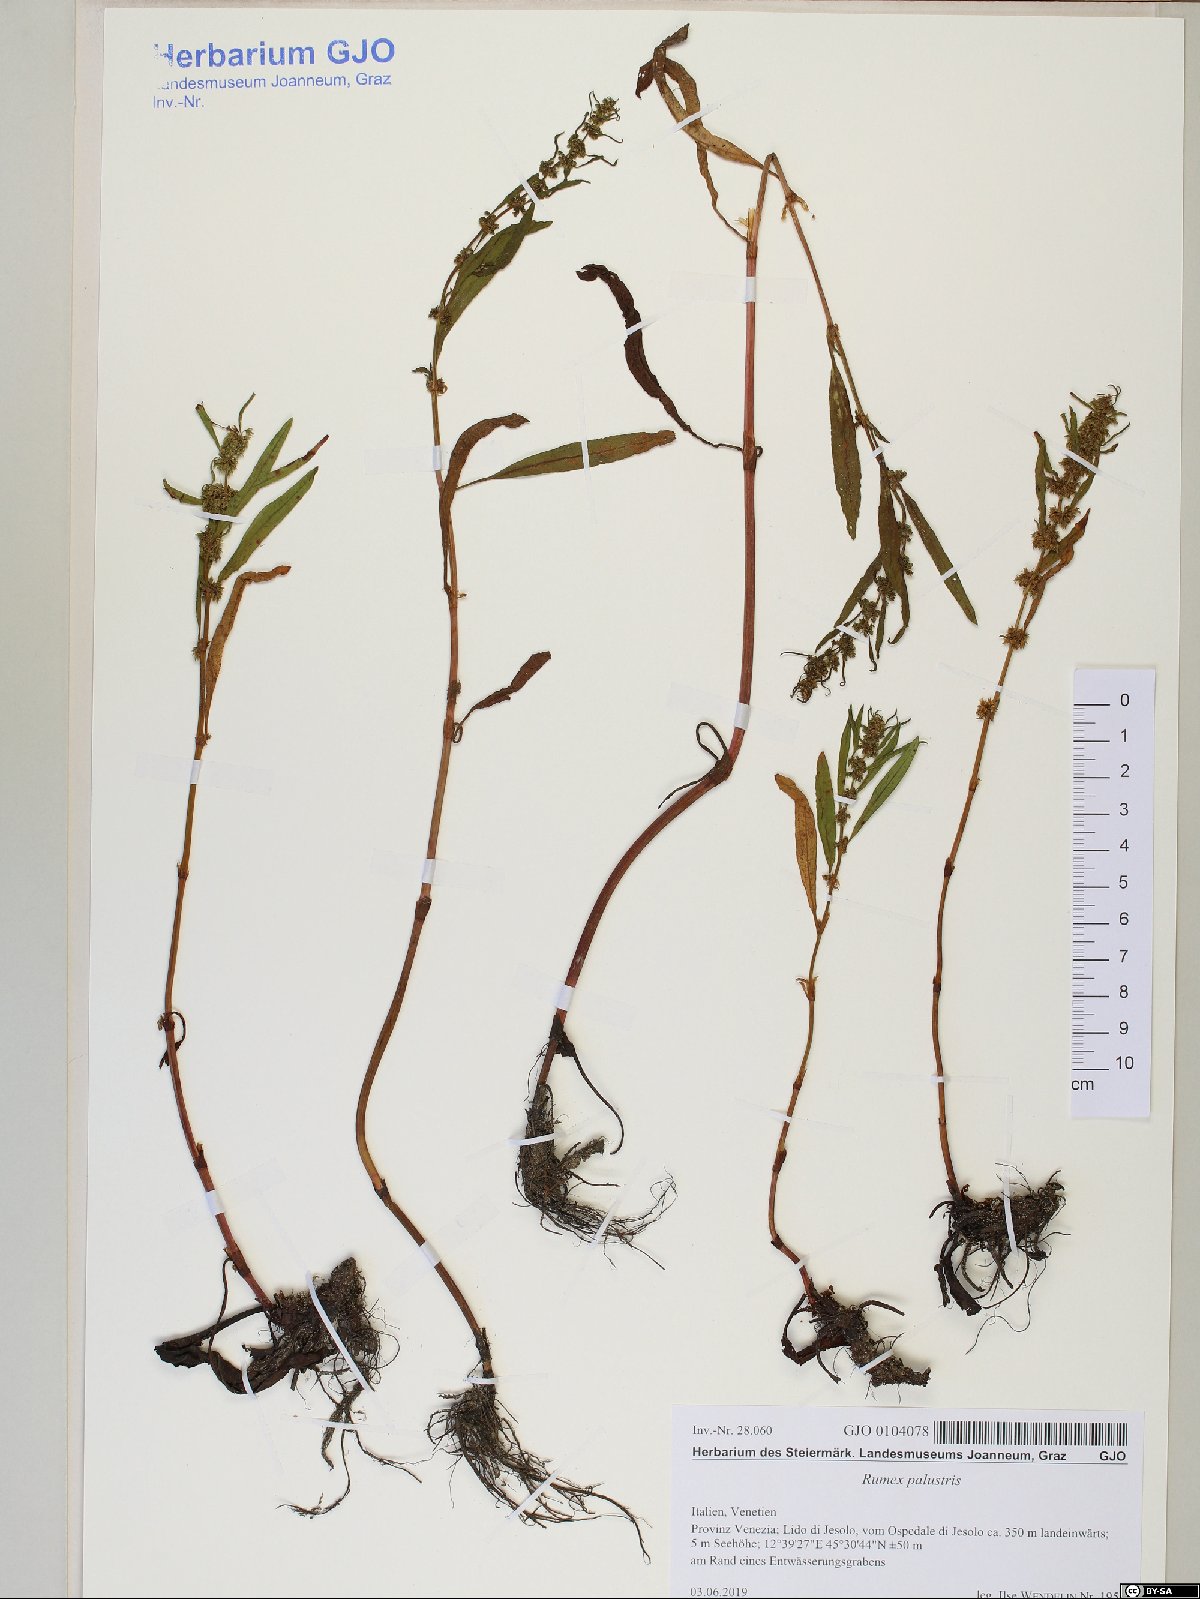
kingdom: Plantae
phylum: Tracheophyta
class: Magnoliopsida
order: Caryophyllales
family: Polygonaceae
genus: Rumex
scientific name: Rumex palustris
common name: Marsh dock
